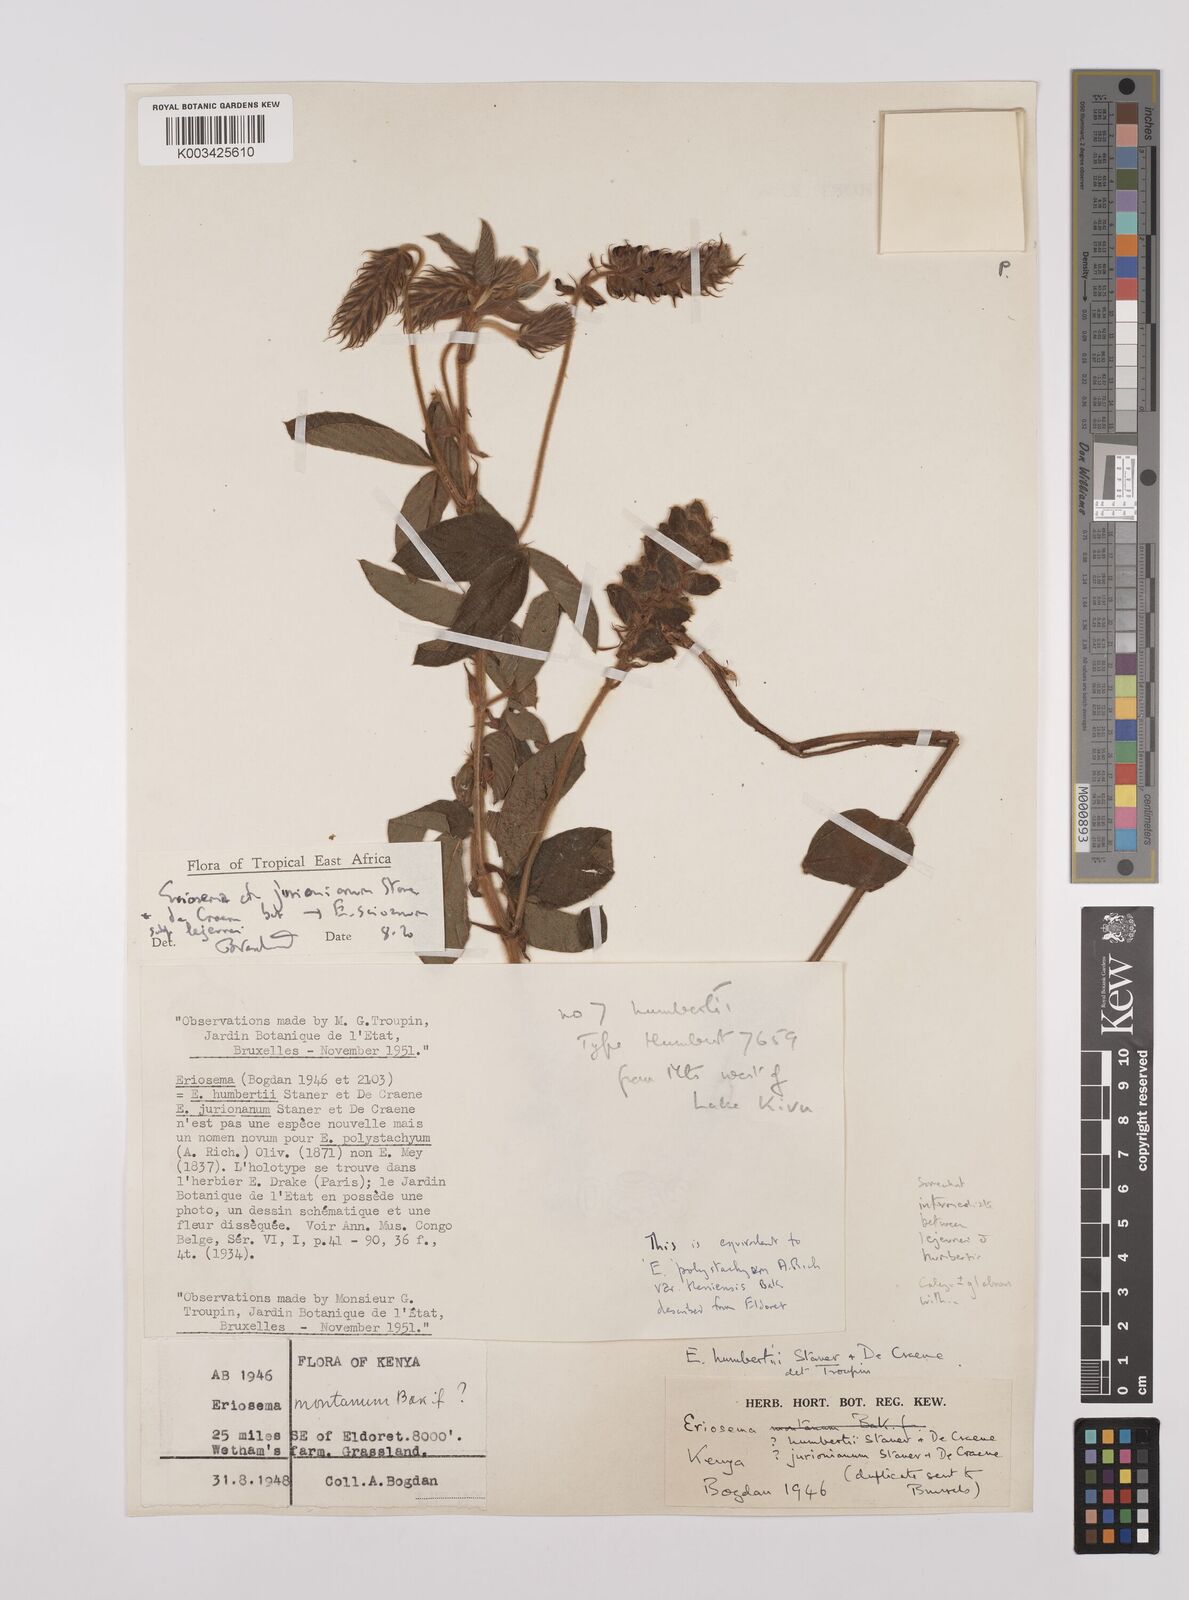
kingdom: Plantae
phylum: Tracheophyta
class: Magnoliopsida
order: Fabales
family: Fabaceae
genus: Eriosema
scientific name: Eriosema jurionianum
